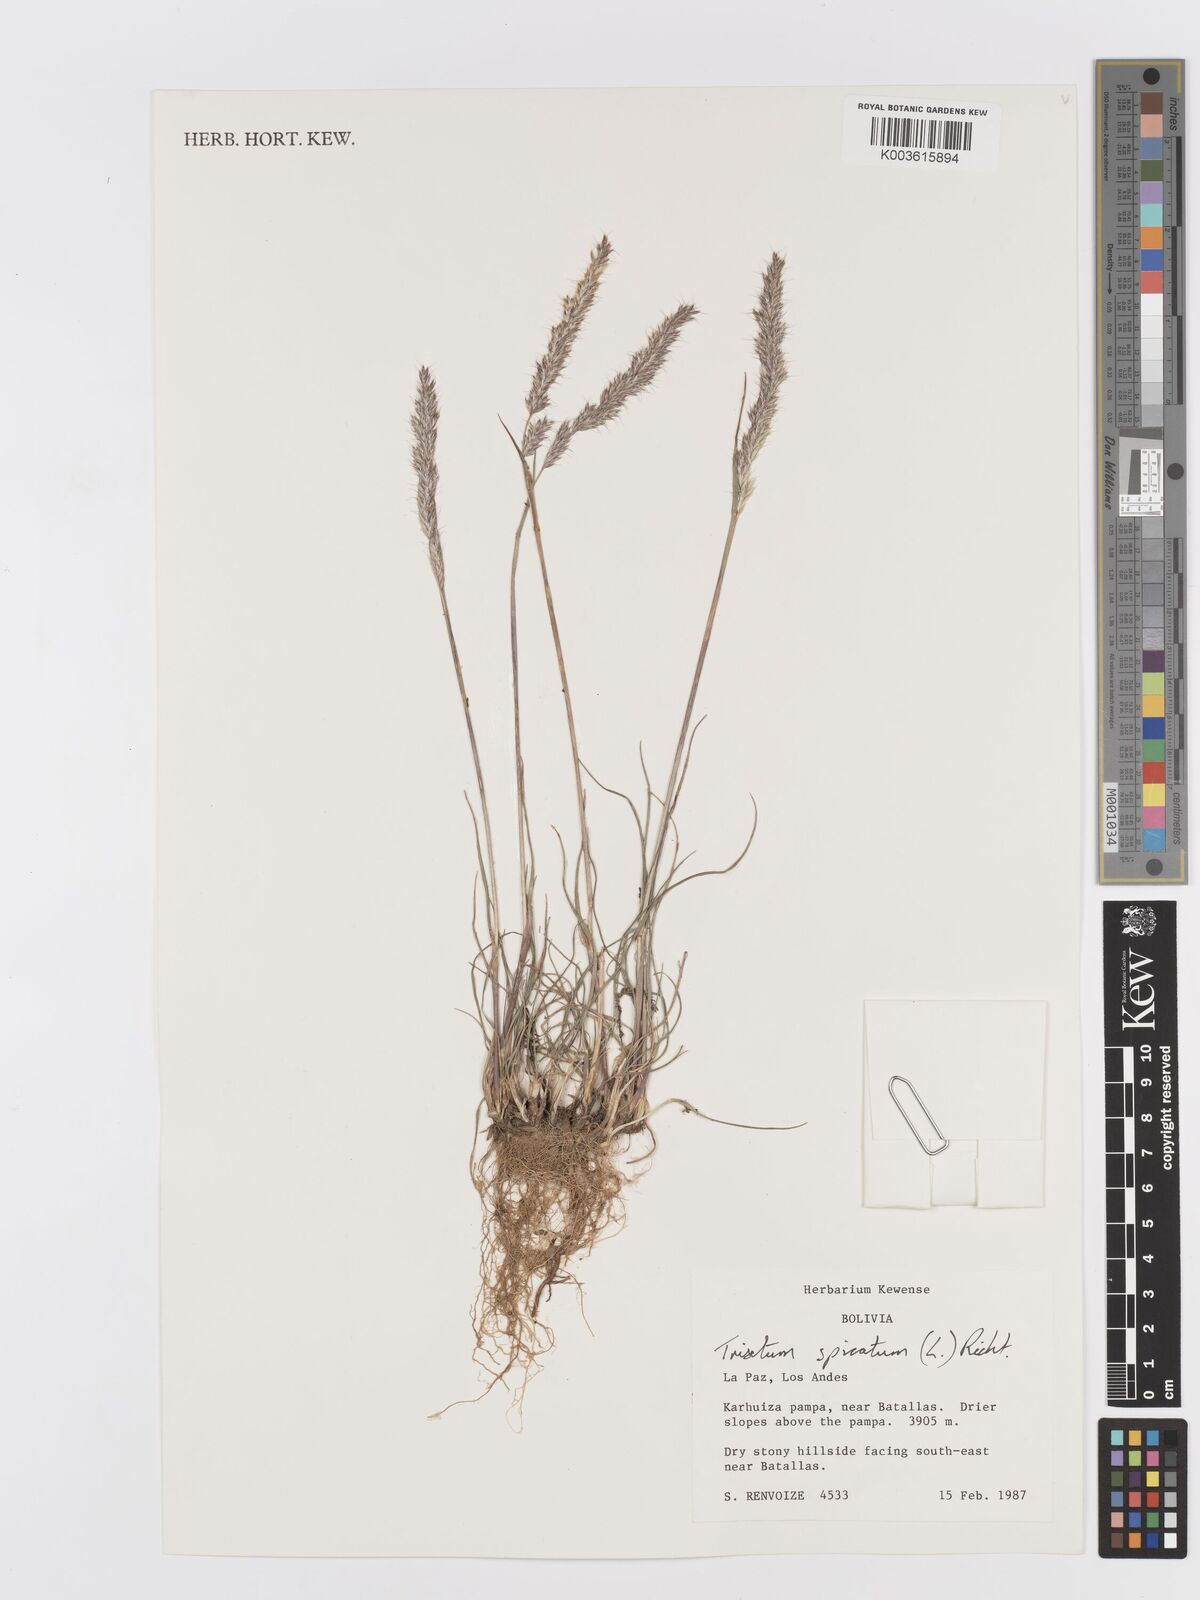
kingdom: Plantae
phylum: Tracheophyta
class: Liliopsida
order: Poales
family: Poaceae
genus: Koeleria
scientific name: Koeleria spicata
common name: Mountain trisetum
